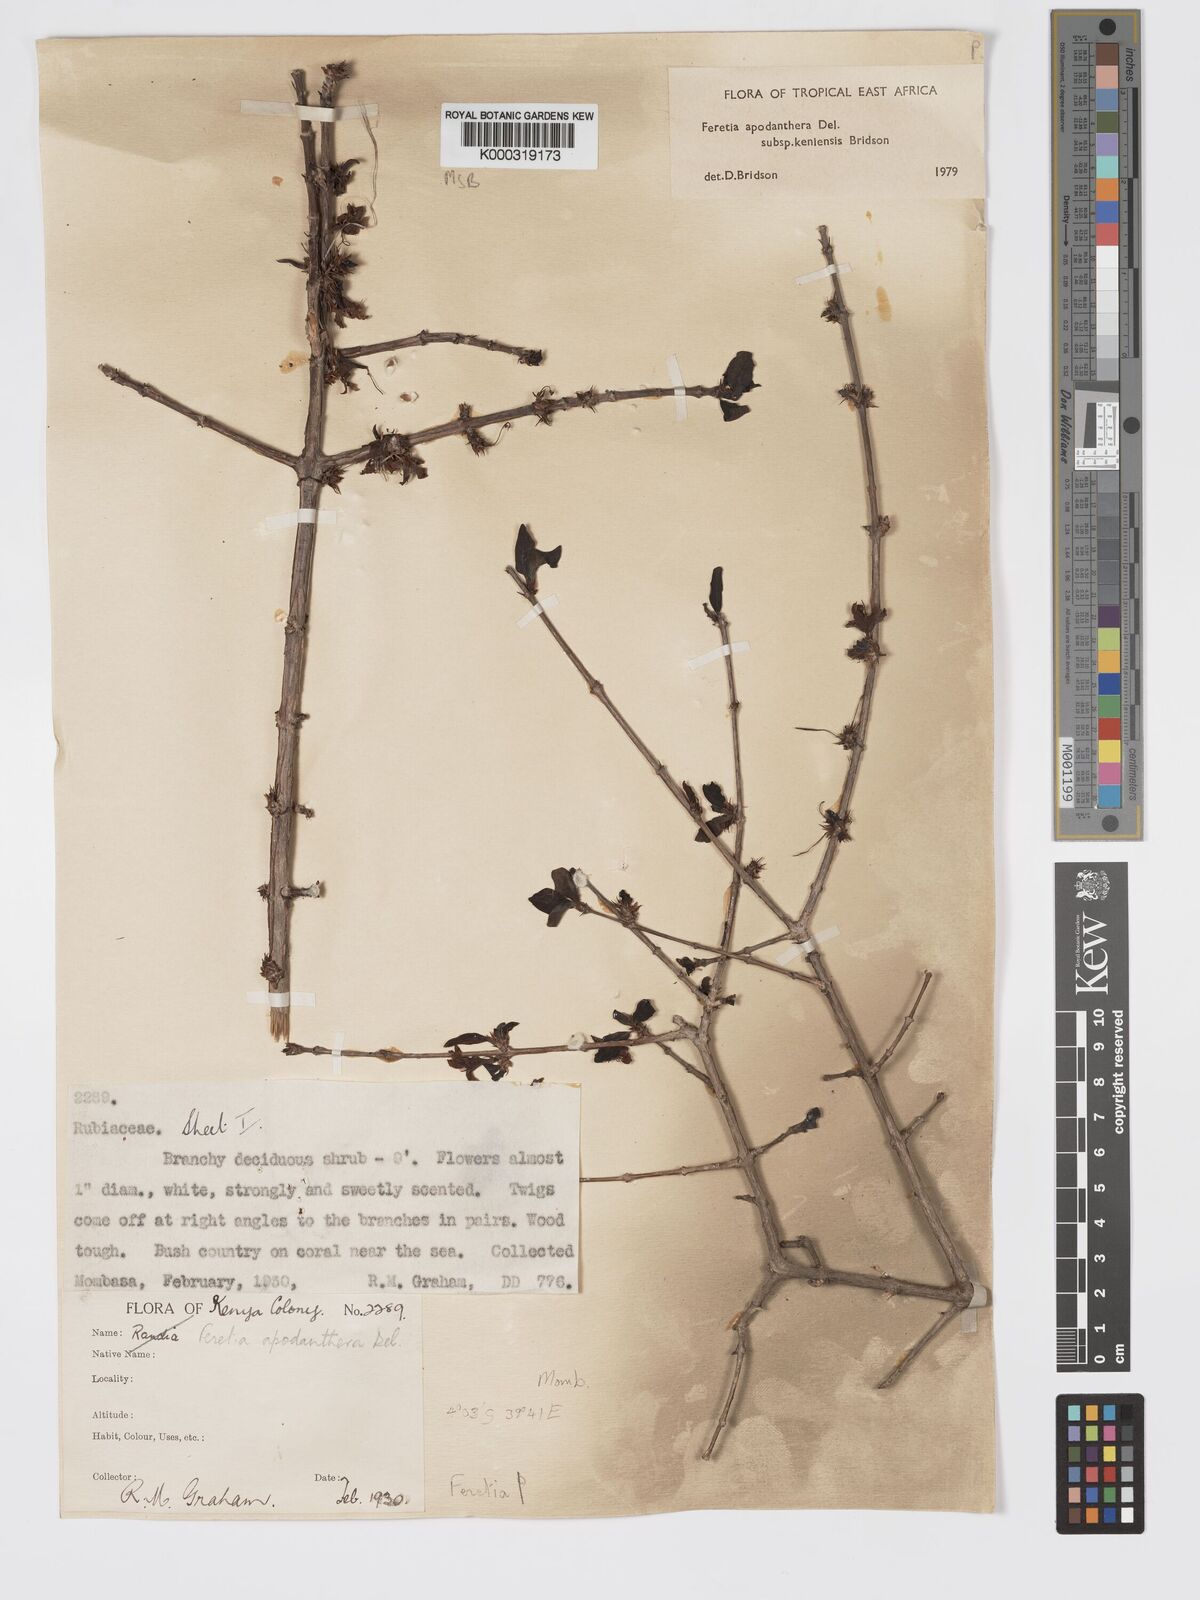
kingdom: Plantae
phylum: Tracheophyta
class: Magnoliopsida
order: Gentianales
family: Rubiaceae
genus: Feretia
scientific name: Feretia apodanthera
